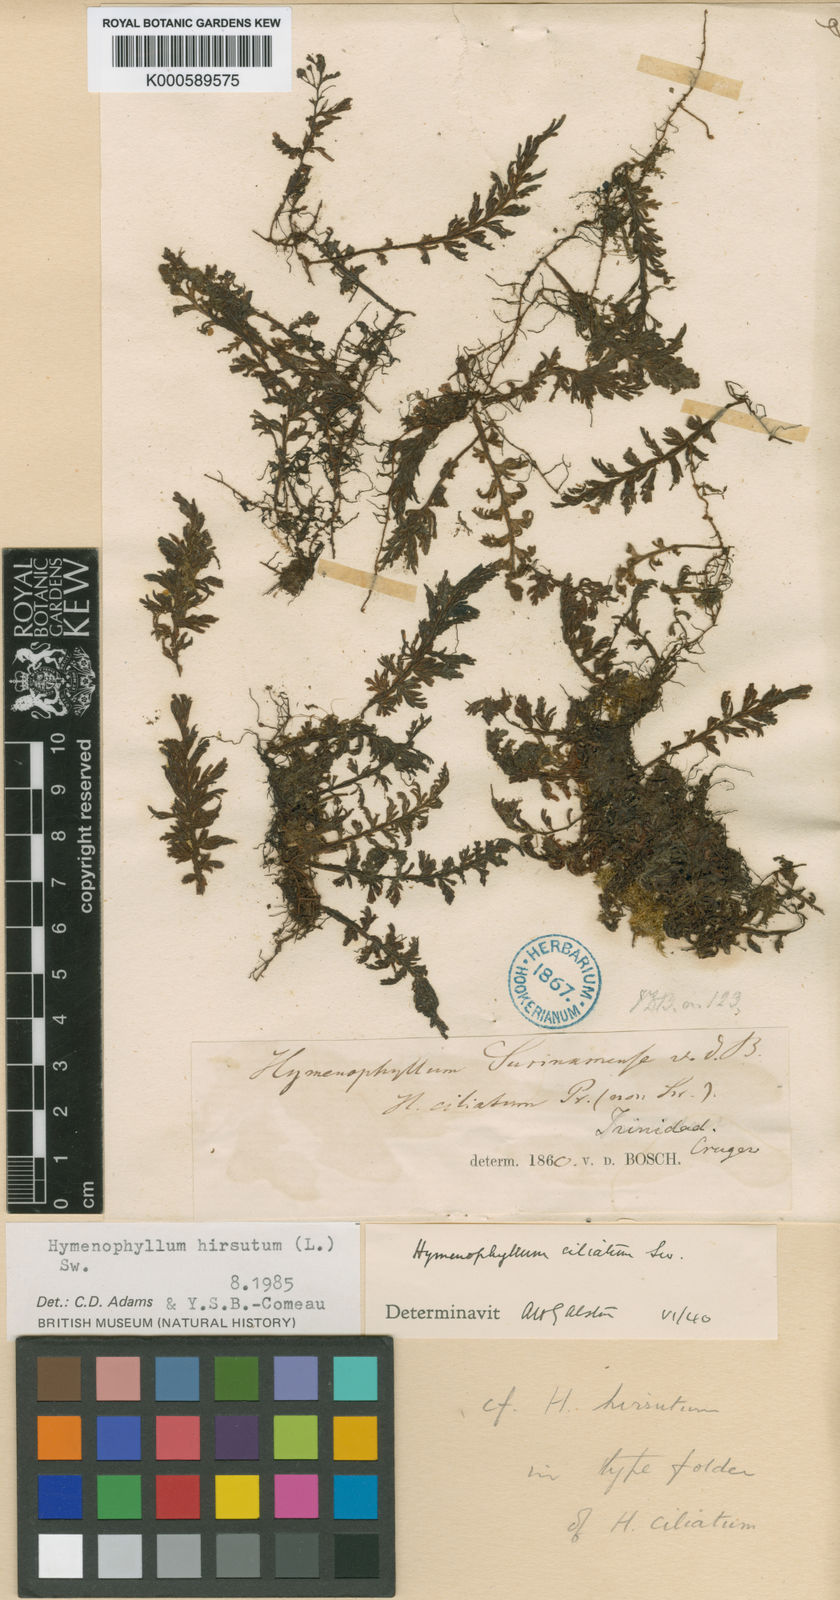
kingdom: Plantae
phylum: Tracheophyta
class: Polypodiopsida
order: Hymenophyllales
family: Hymenophyllaceae
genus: Hymenophyllum
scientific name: Hymenophyllum hirsutum
